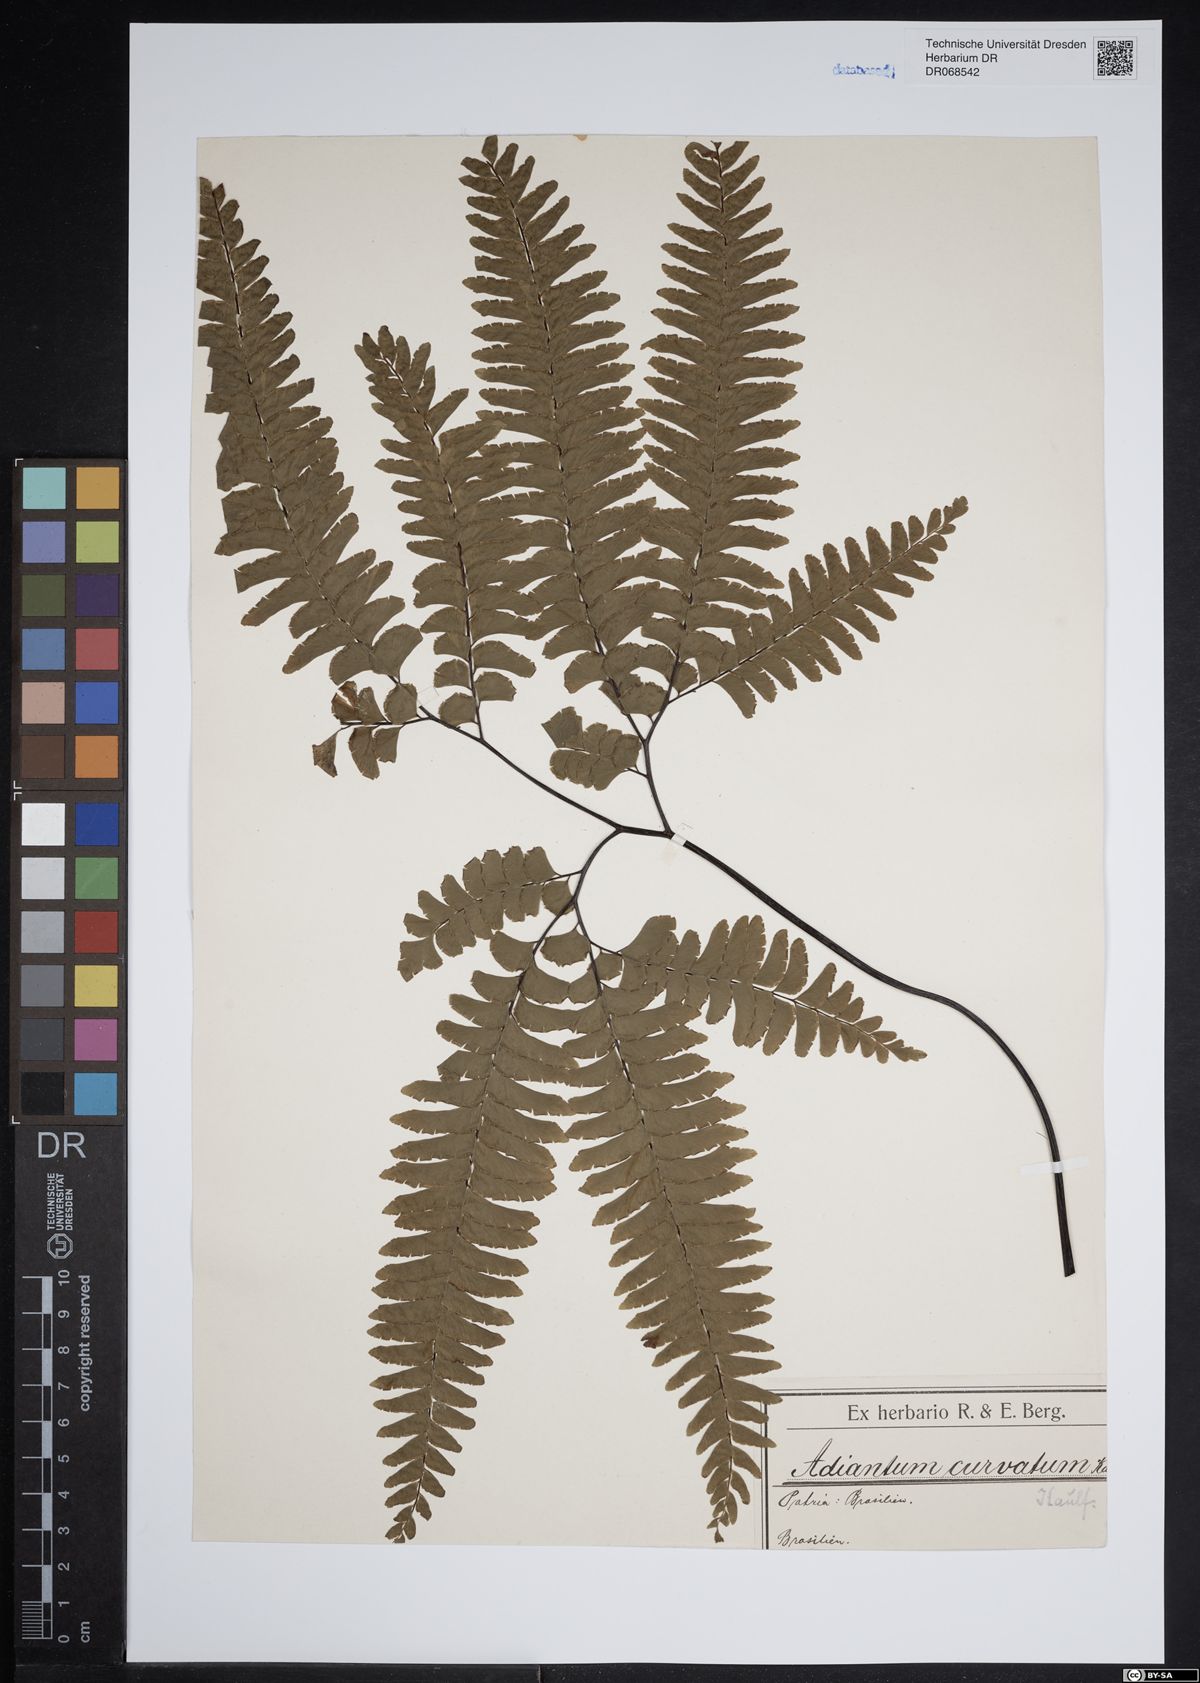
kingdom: Plantae
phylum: Tracheophyta
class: Polypodiopsida
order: Polypodiales
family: Pteridaceae
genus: Adiantum
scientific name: Adiantum curvatum
